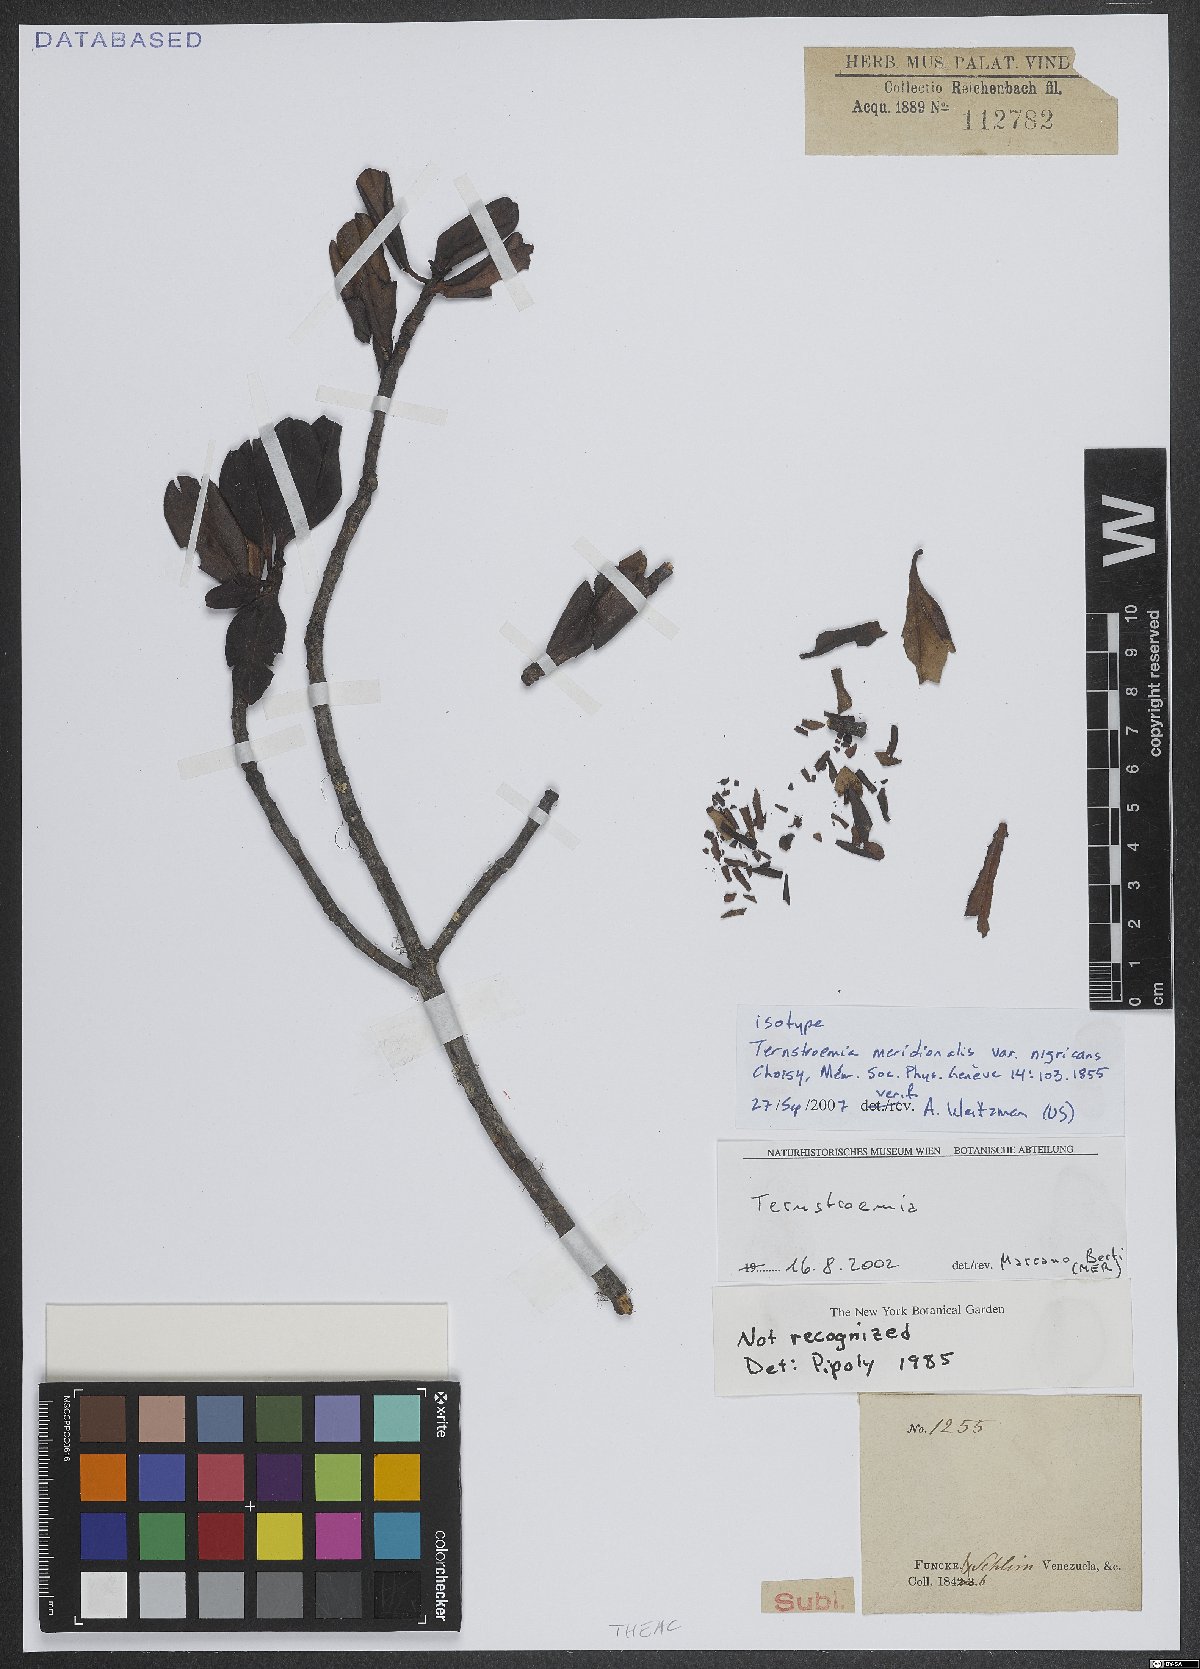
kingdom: Plantae
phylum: Tracheophyta
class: Magnoliopsida
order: Ericales
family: Pentaphylacaceae
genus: Ternstroemia
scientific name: Ternstroemia meridionalis
